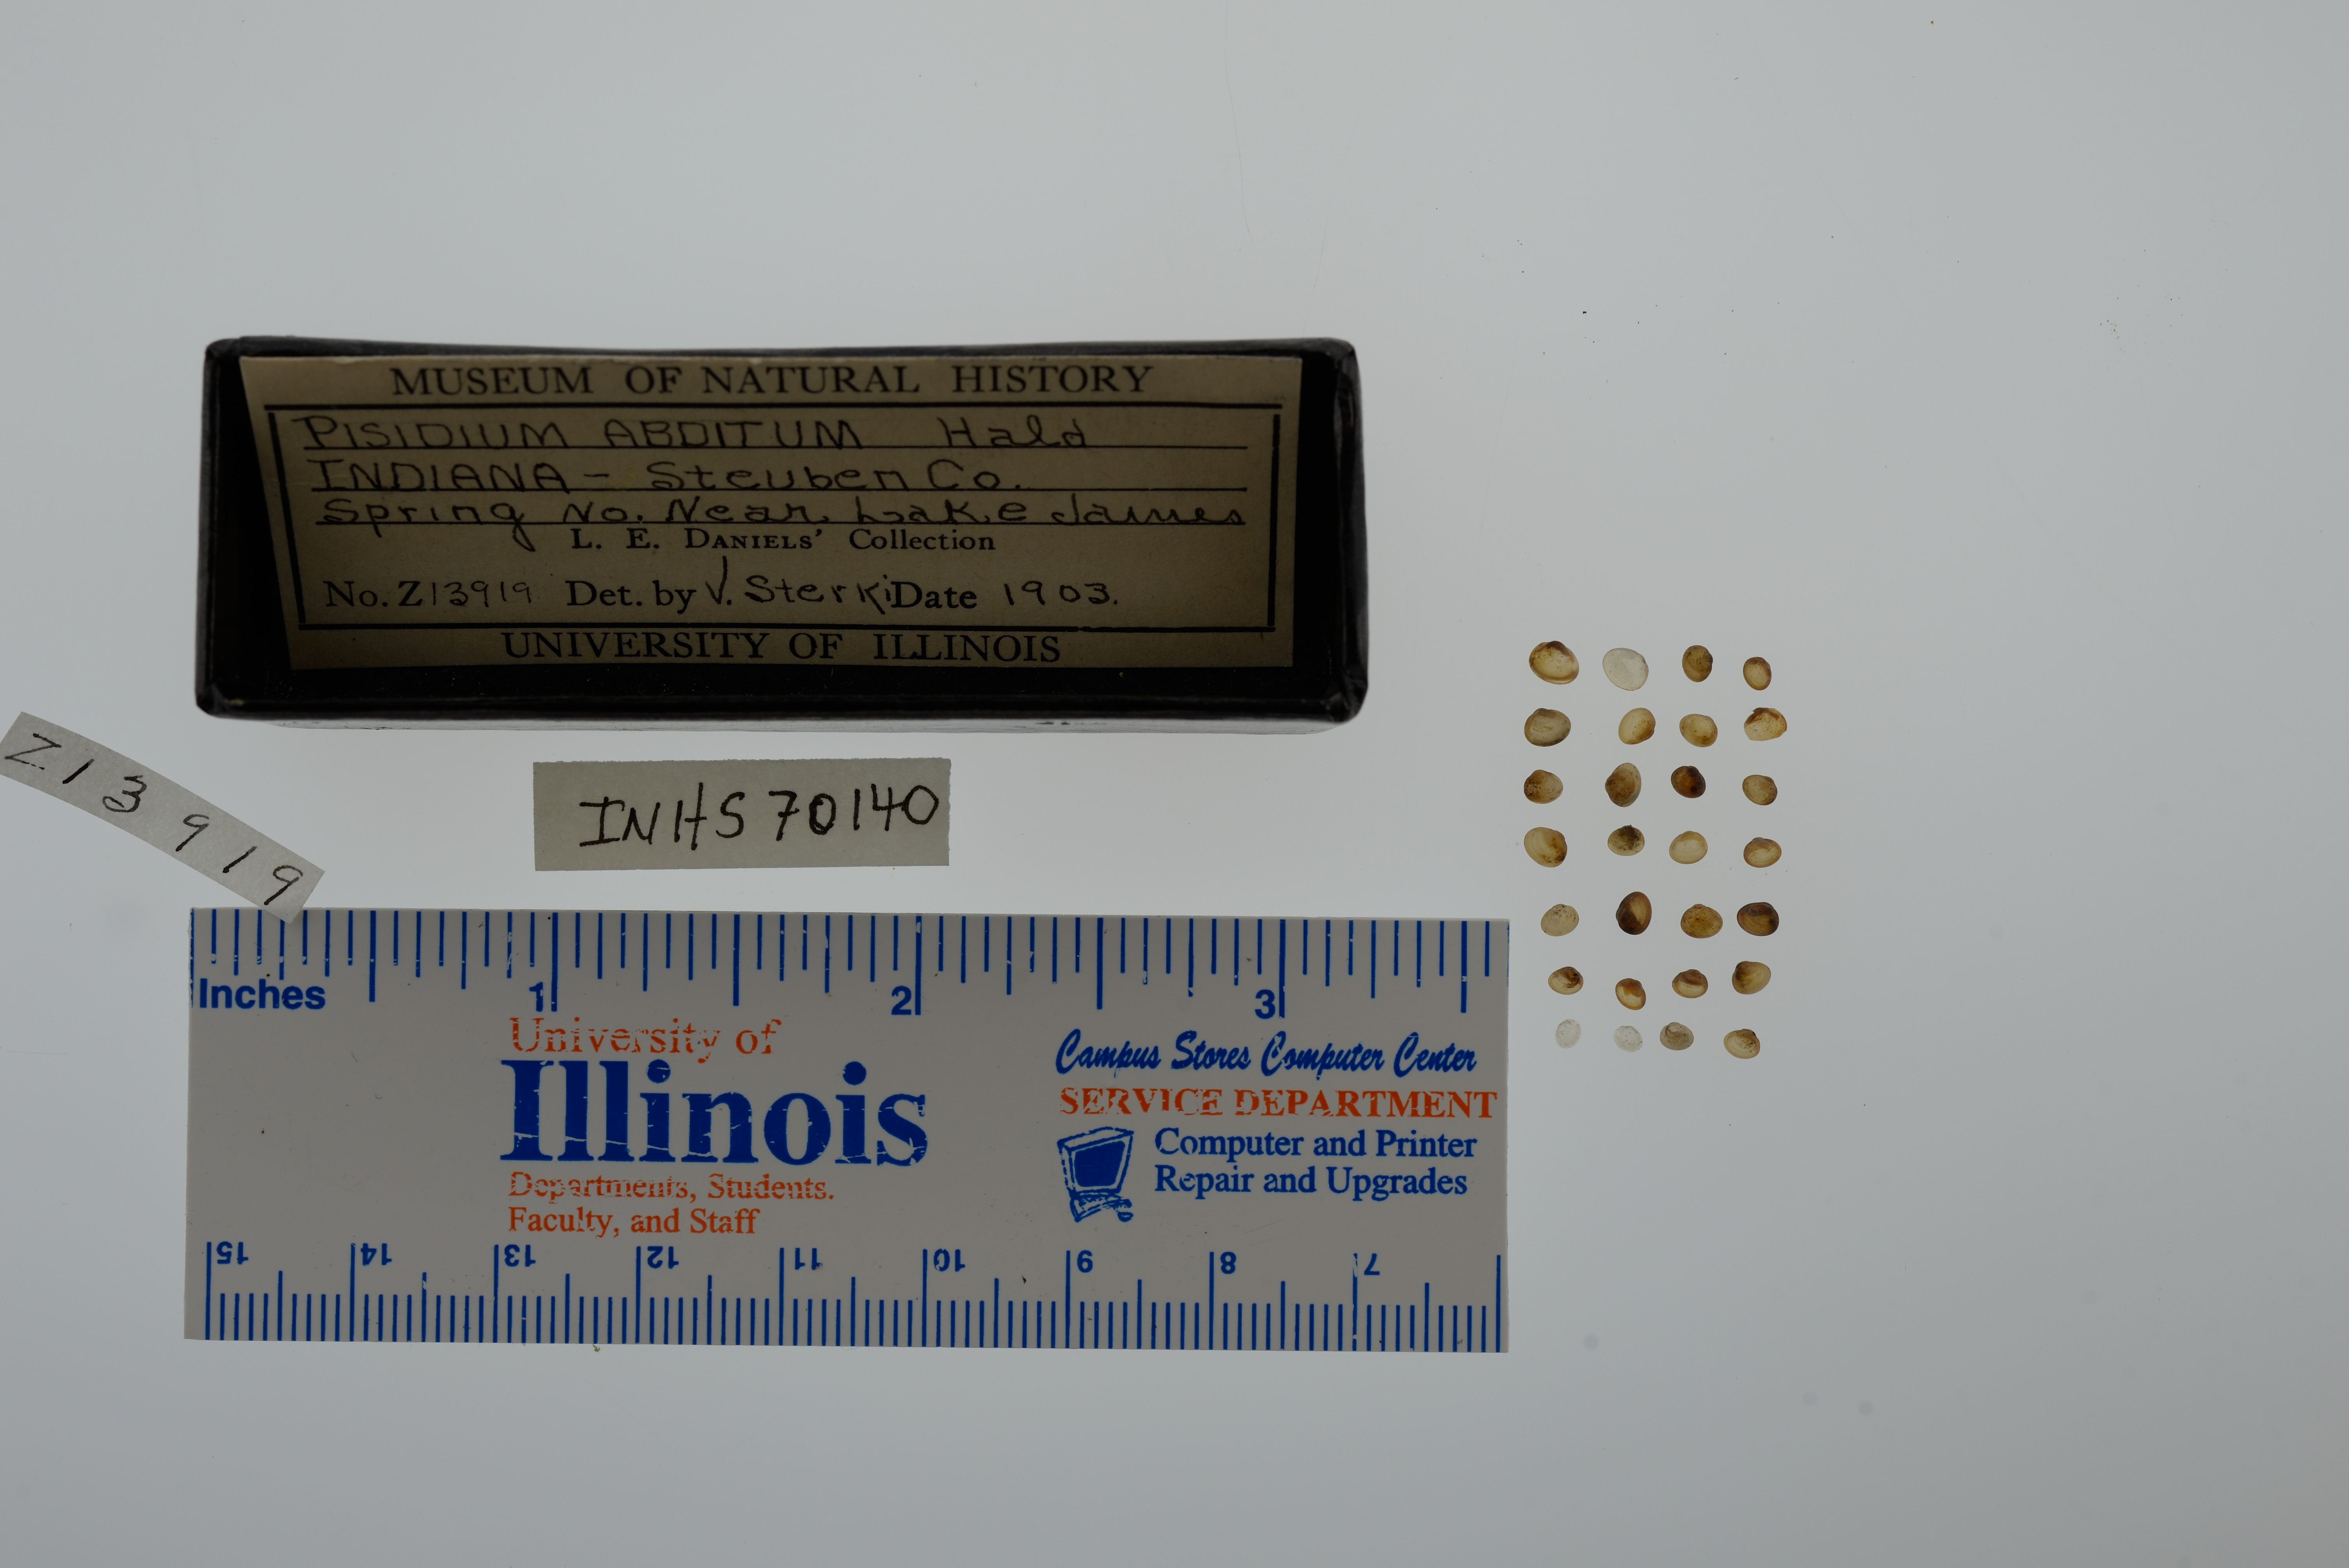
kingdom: Animalia
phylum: Mollusca
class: Bivalvia
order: Sphaeriida
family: Sphaeriidae
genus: Euglesa
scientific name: Euglesa casertana
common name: Caserta pea mussel
